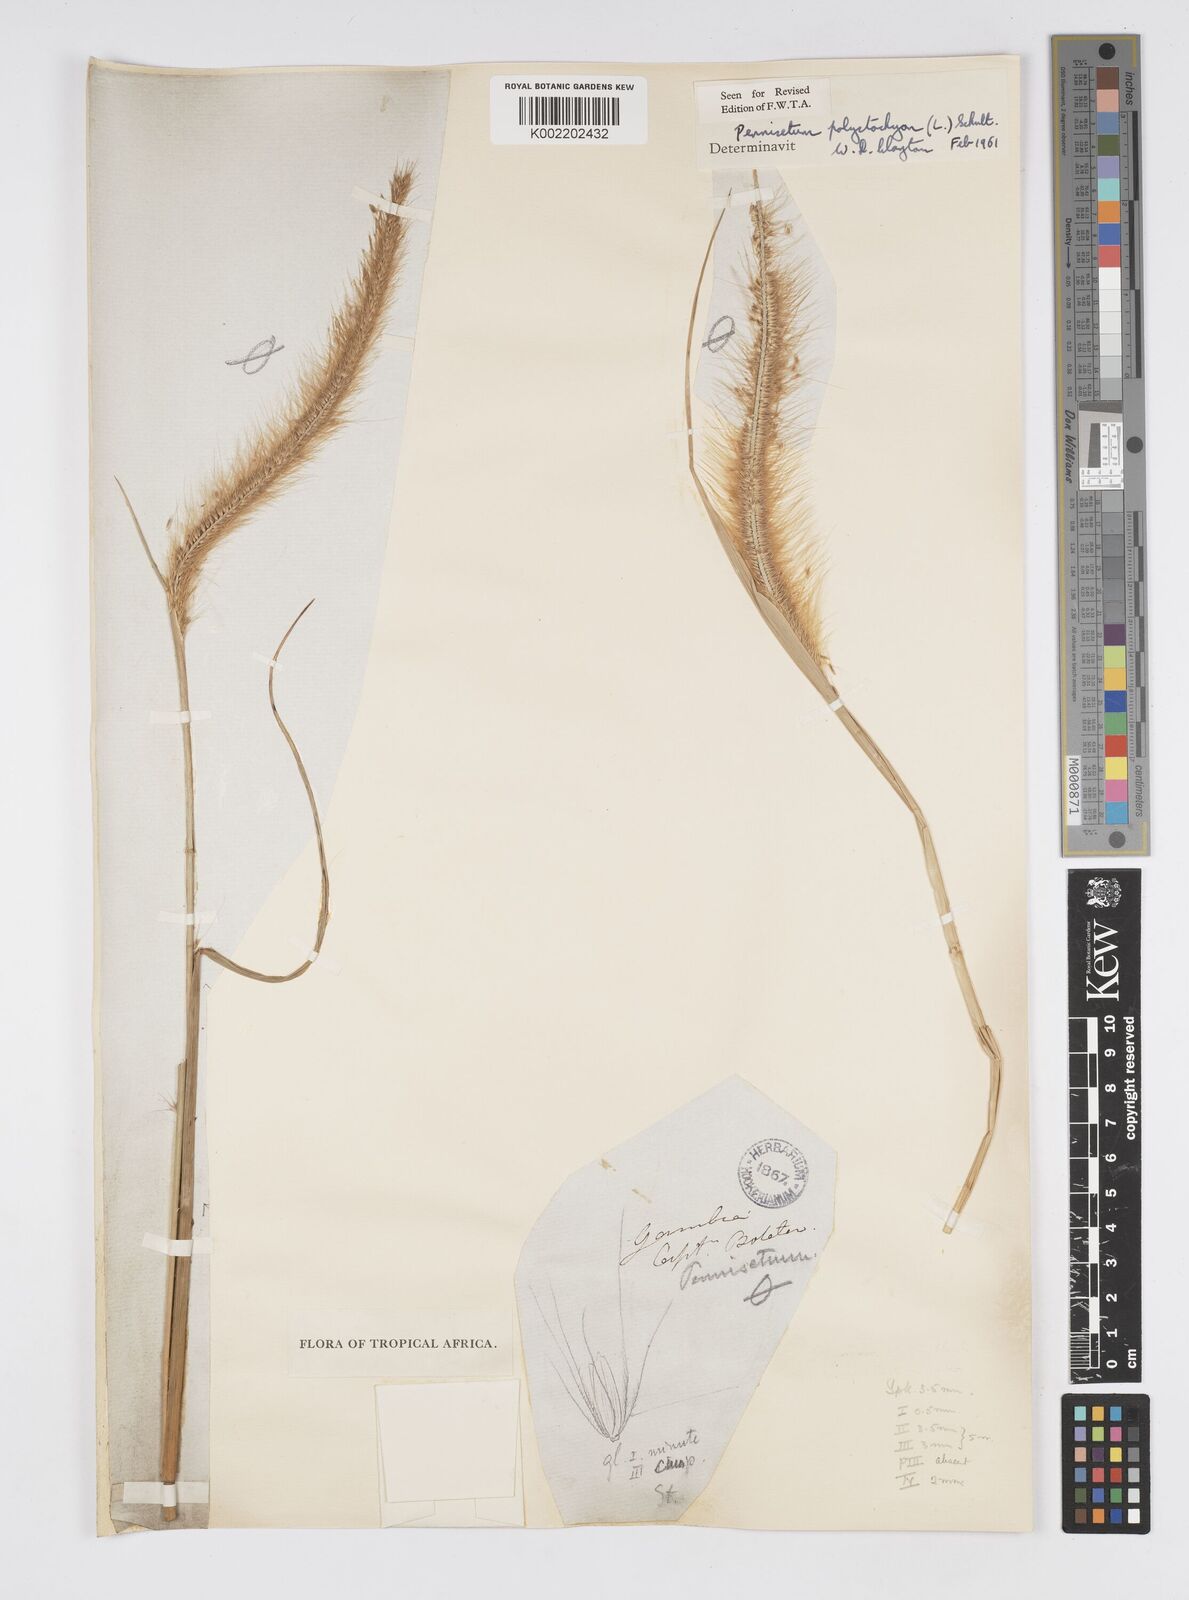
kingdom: Plantae
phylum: Tracheophyta
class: Liliopsida
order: Poales
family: Poaceae
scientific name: Poaceae
